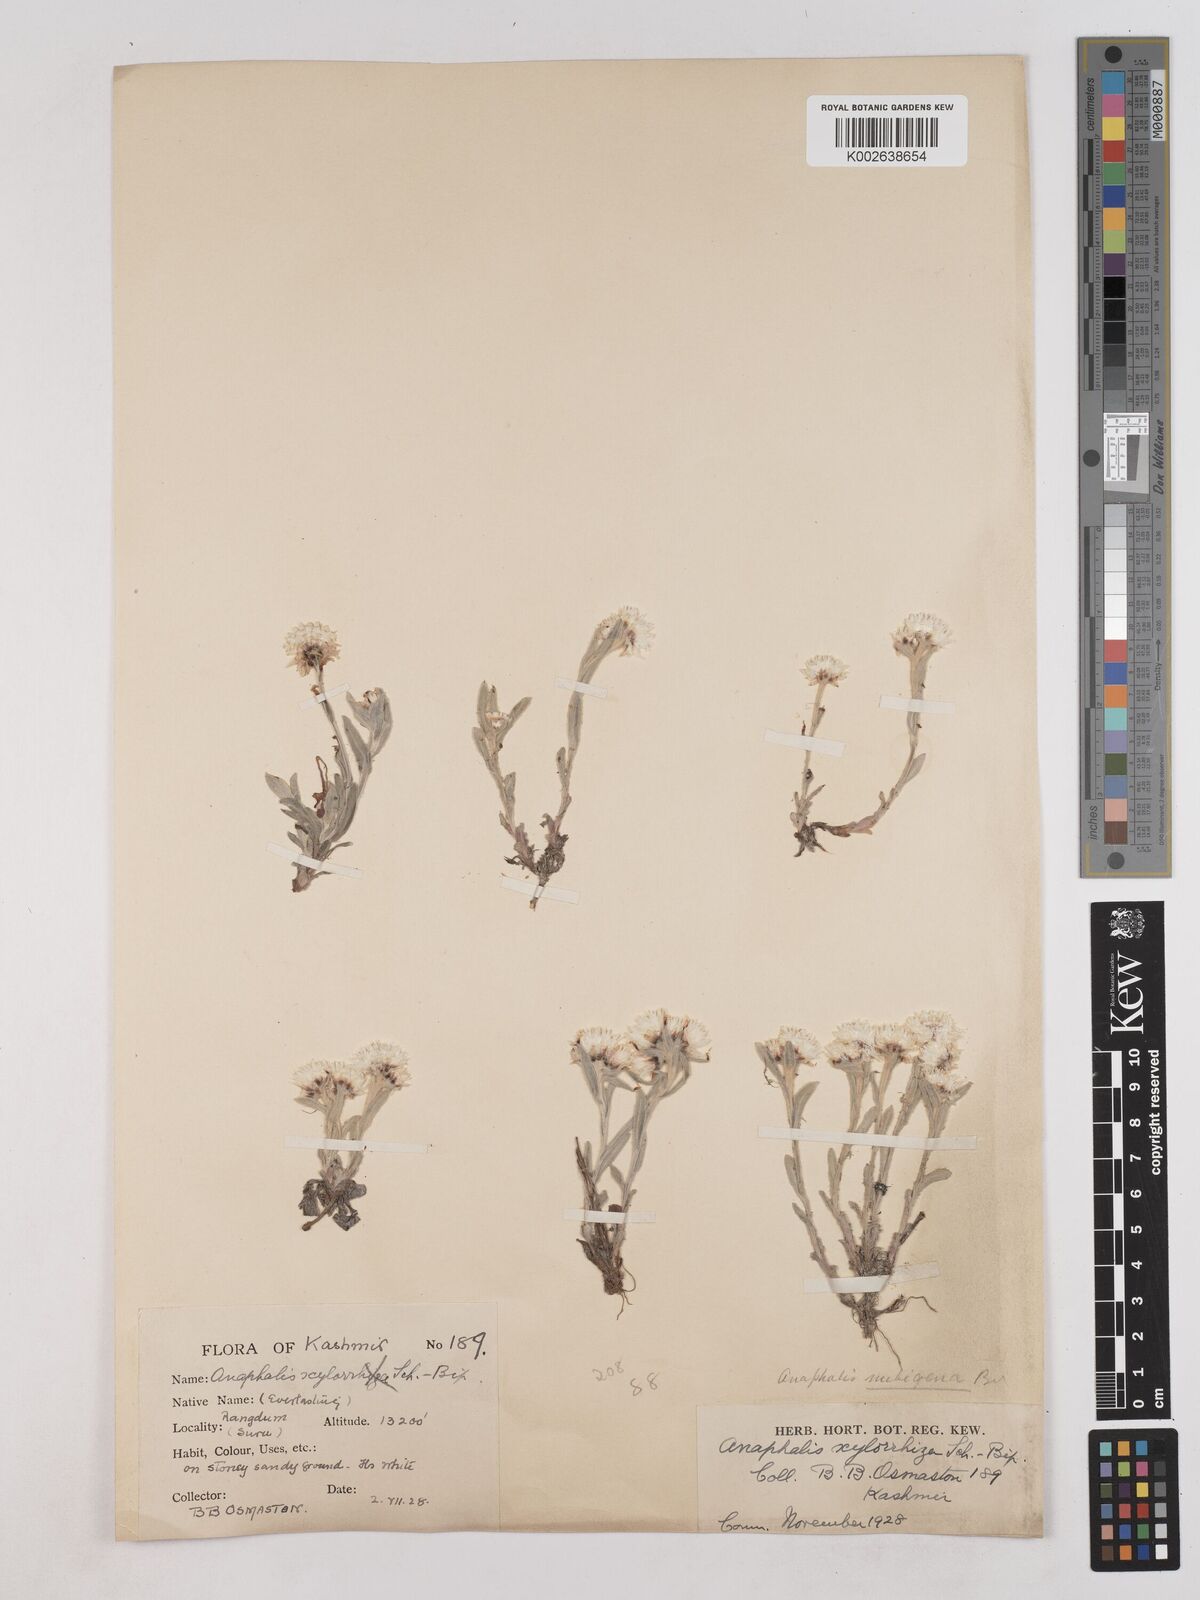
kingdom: Plantae
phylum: Tracheophyta
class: Magnoliopsida
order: Asterales
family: Asteraceae
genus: Anaphalis
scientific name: Anaphalis
